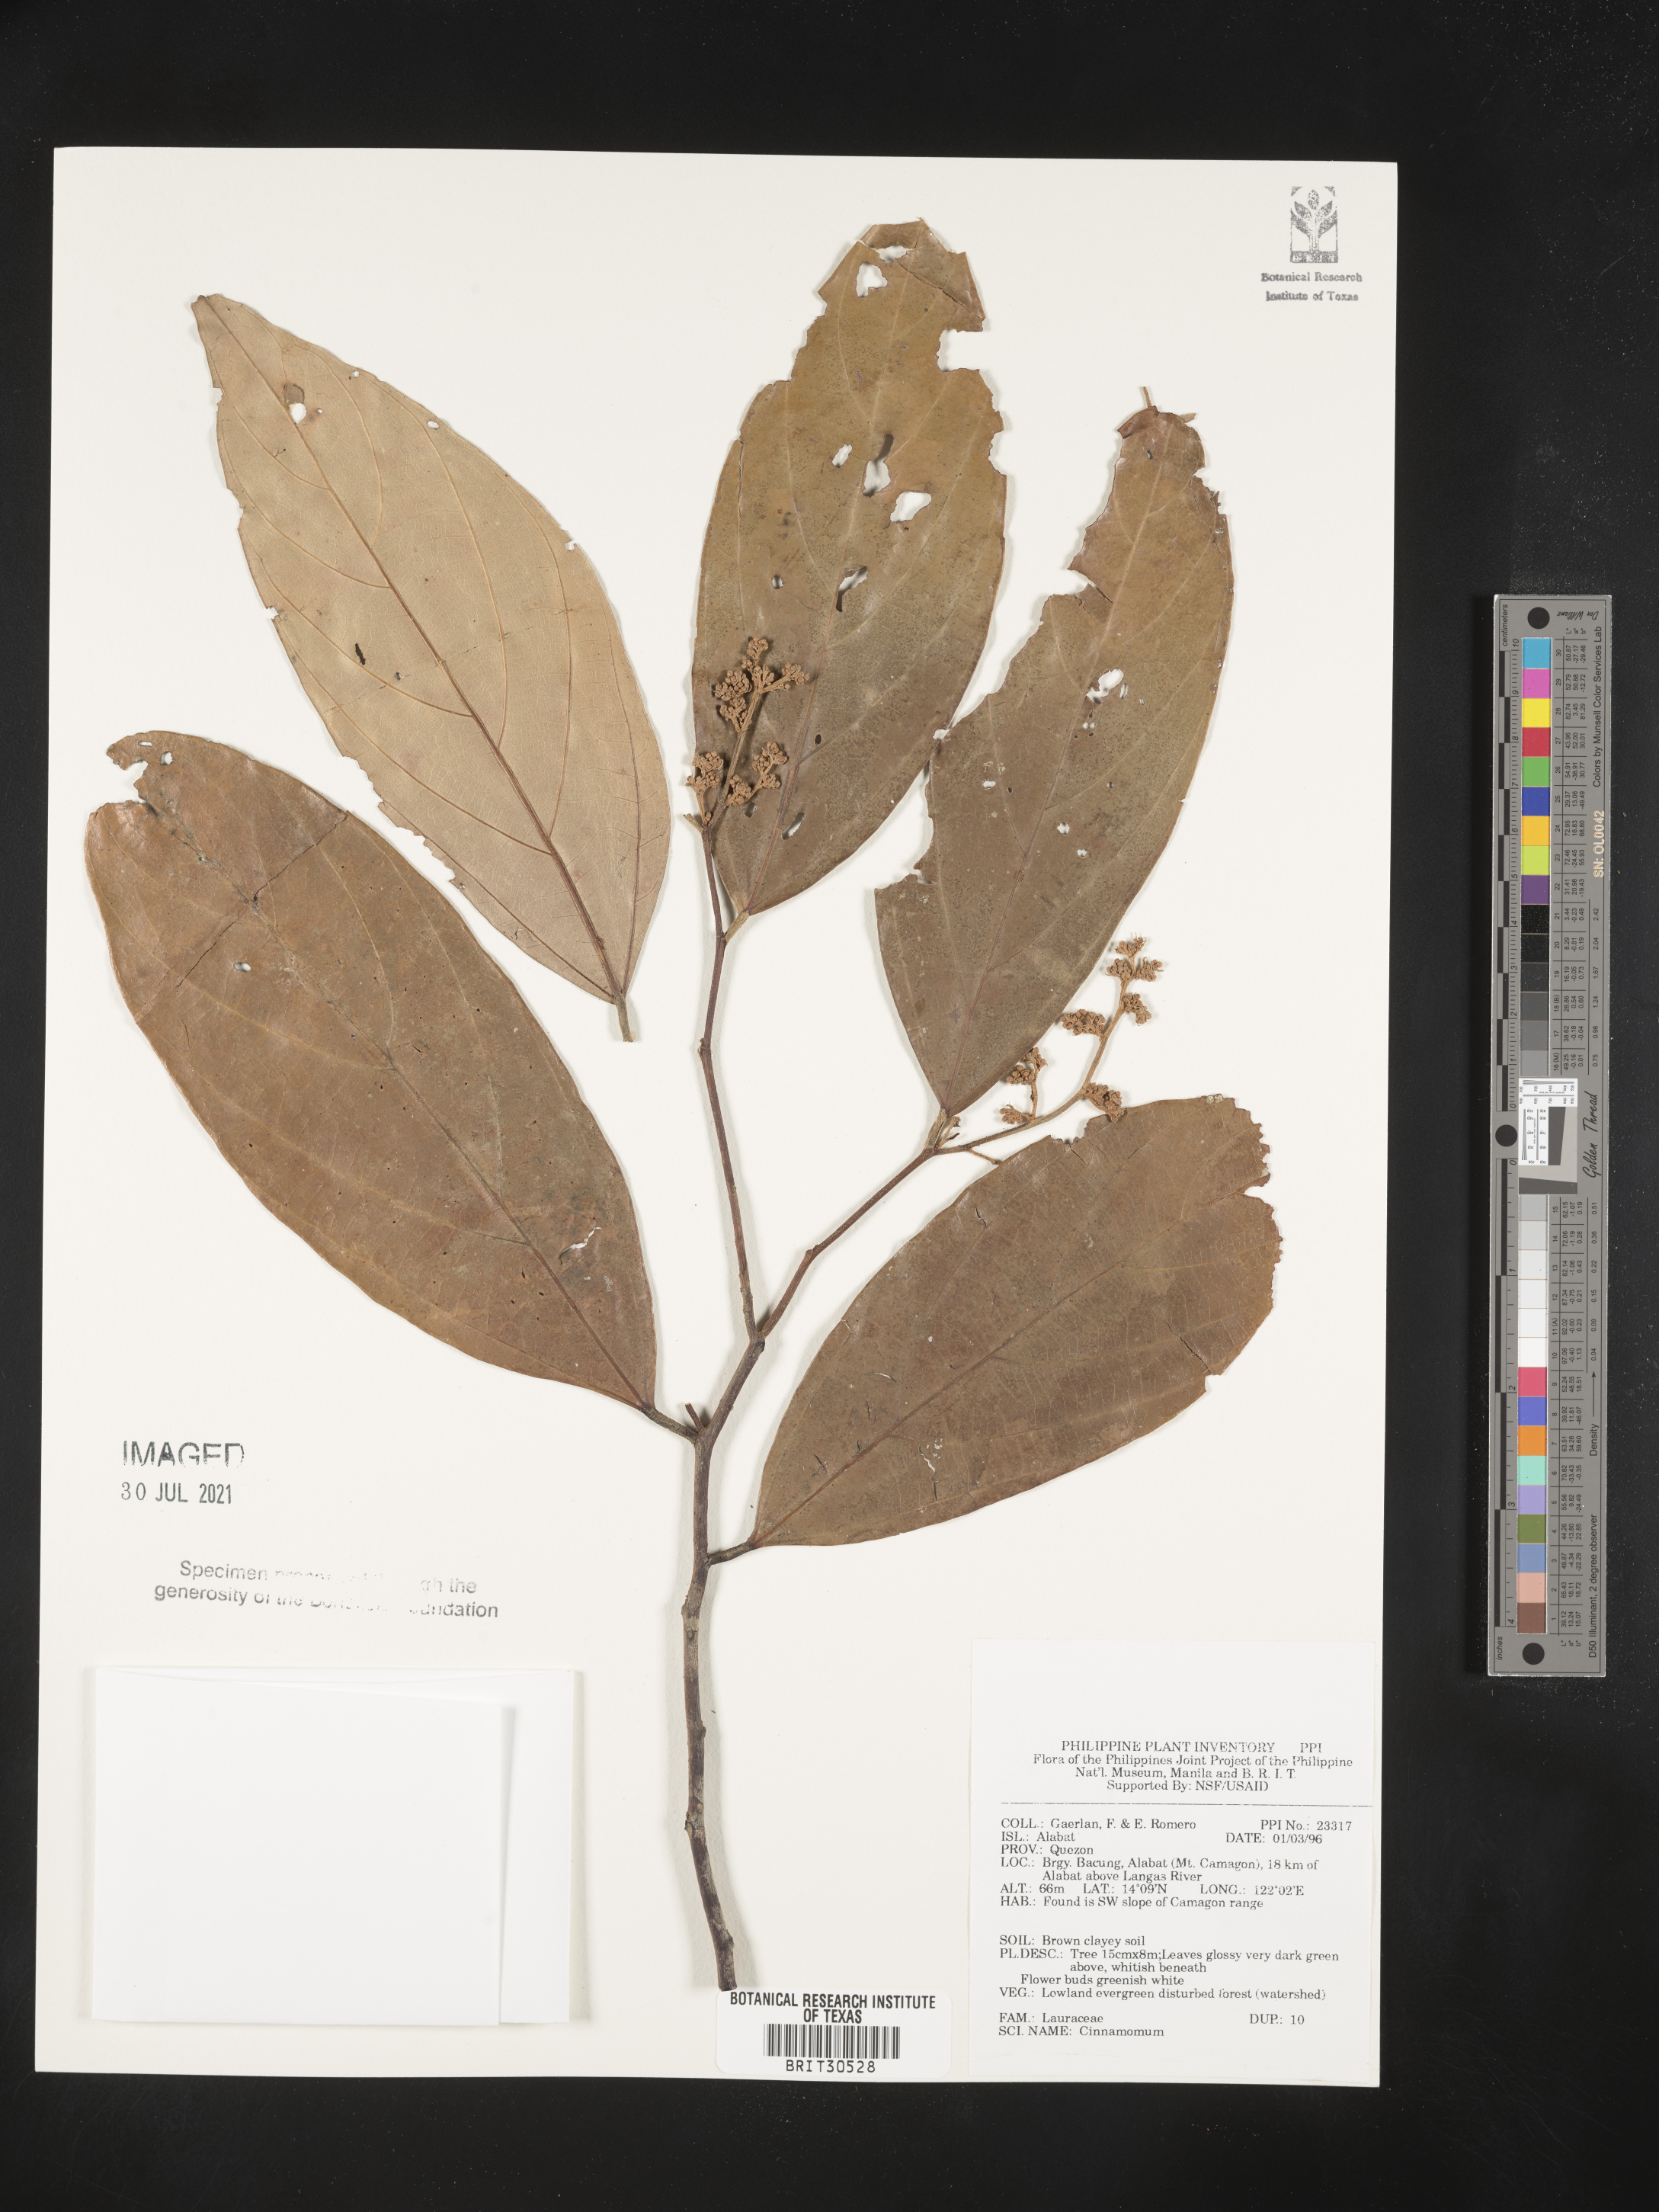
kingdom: Plantae
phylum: Tracheophyta
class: Magnoliopsida
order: Laurales
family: Lauraceae
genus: Cinnamomum
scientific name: Cinnamomum
